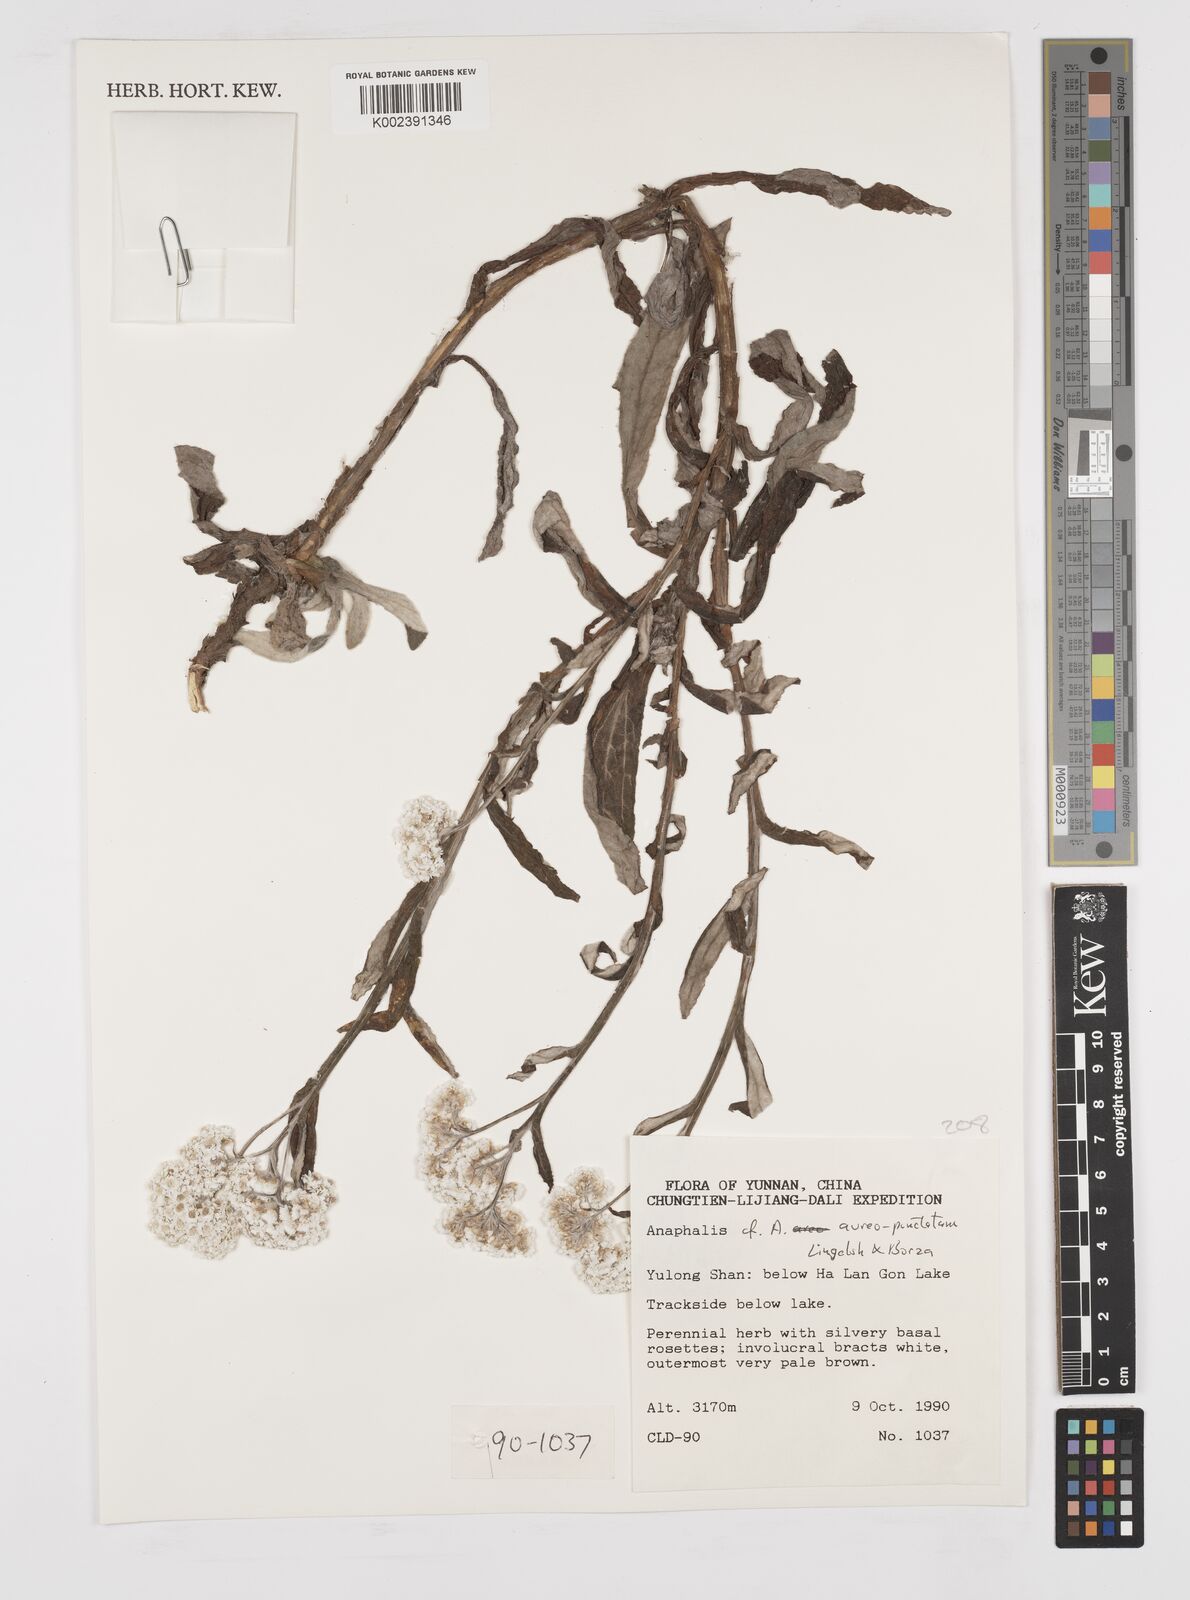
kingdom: Plantae
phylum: Tracheophyta
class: Magnoliopsida
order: Asterales
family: Asteraceae
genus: Anaphalis
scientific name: Anaphalis aureopunctata
